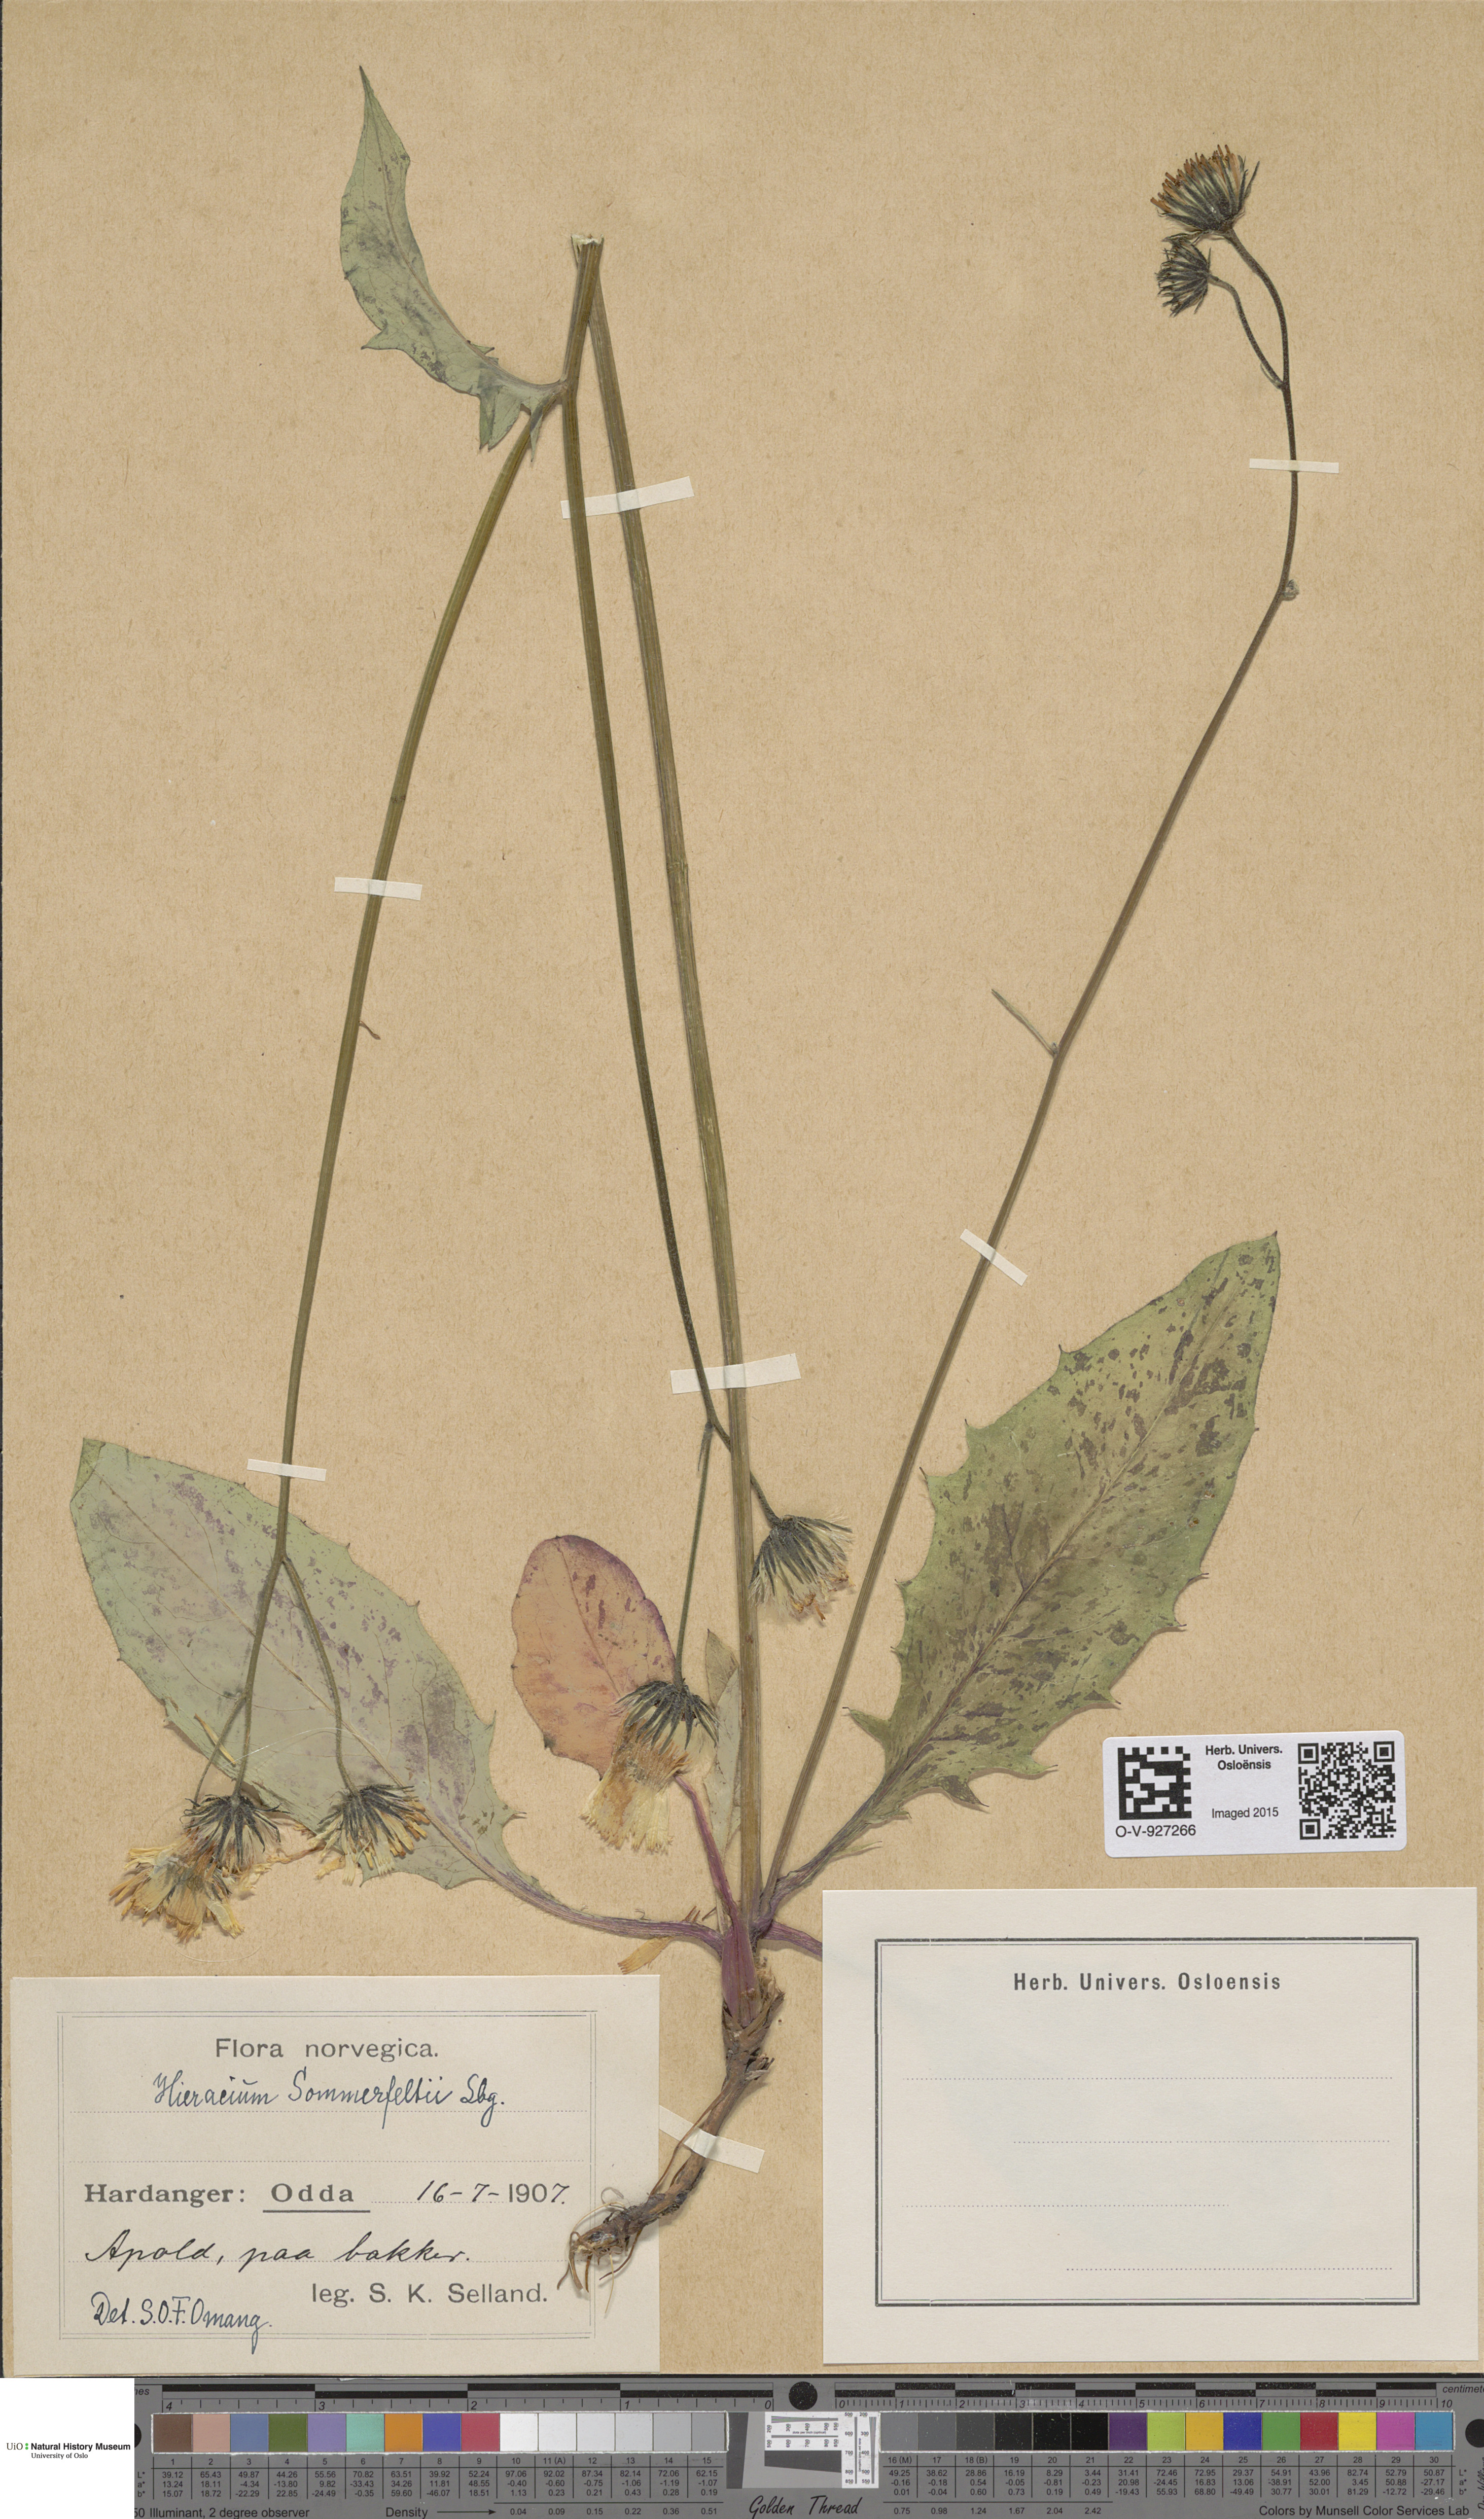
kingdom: Plantae
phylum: Tracheophyta
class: Magnoliopsida
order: Asterales
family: Asteraceae
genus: Hieracium
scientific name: Hieracium sommerfeltii
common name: Sommerfelt's hawkweed
